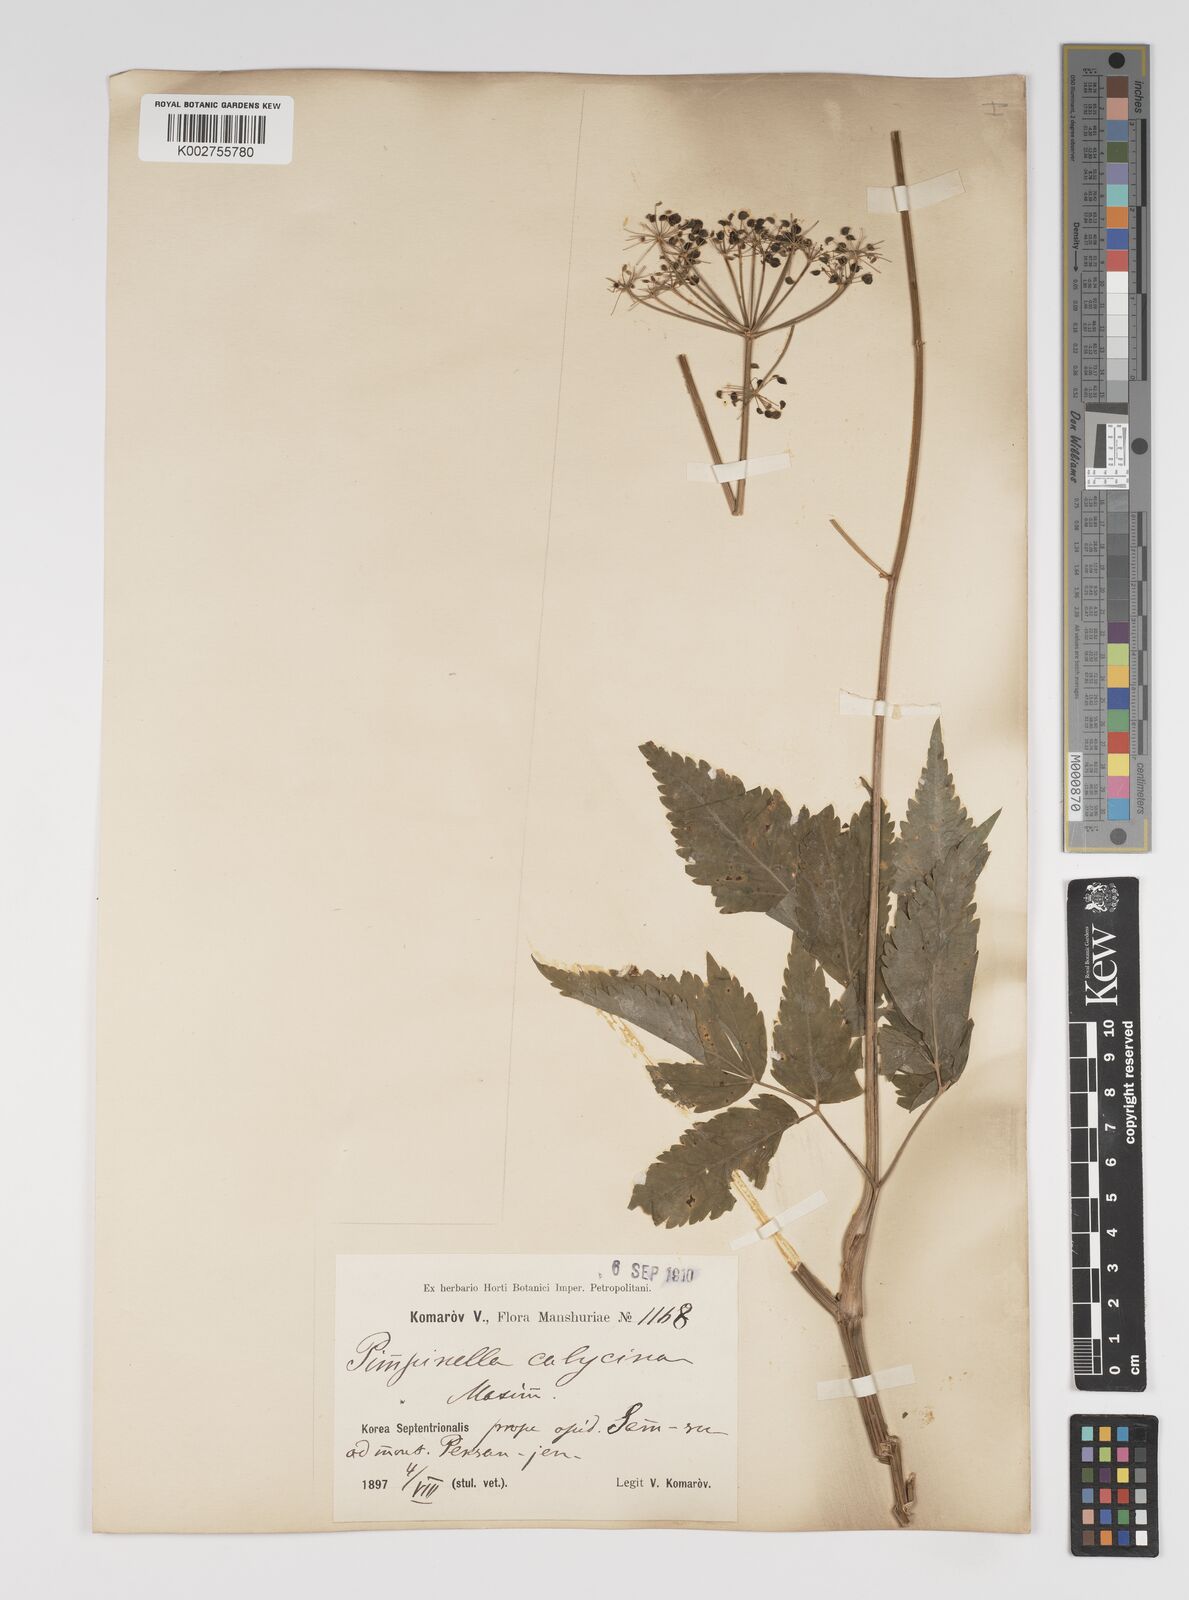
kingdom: Plantae
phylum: Tracheophyta
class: Magnoliopsida
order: Apiales
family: Apiaceae
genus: Spuriopimpinella
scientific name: Spuriopimpinella calycina
